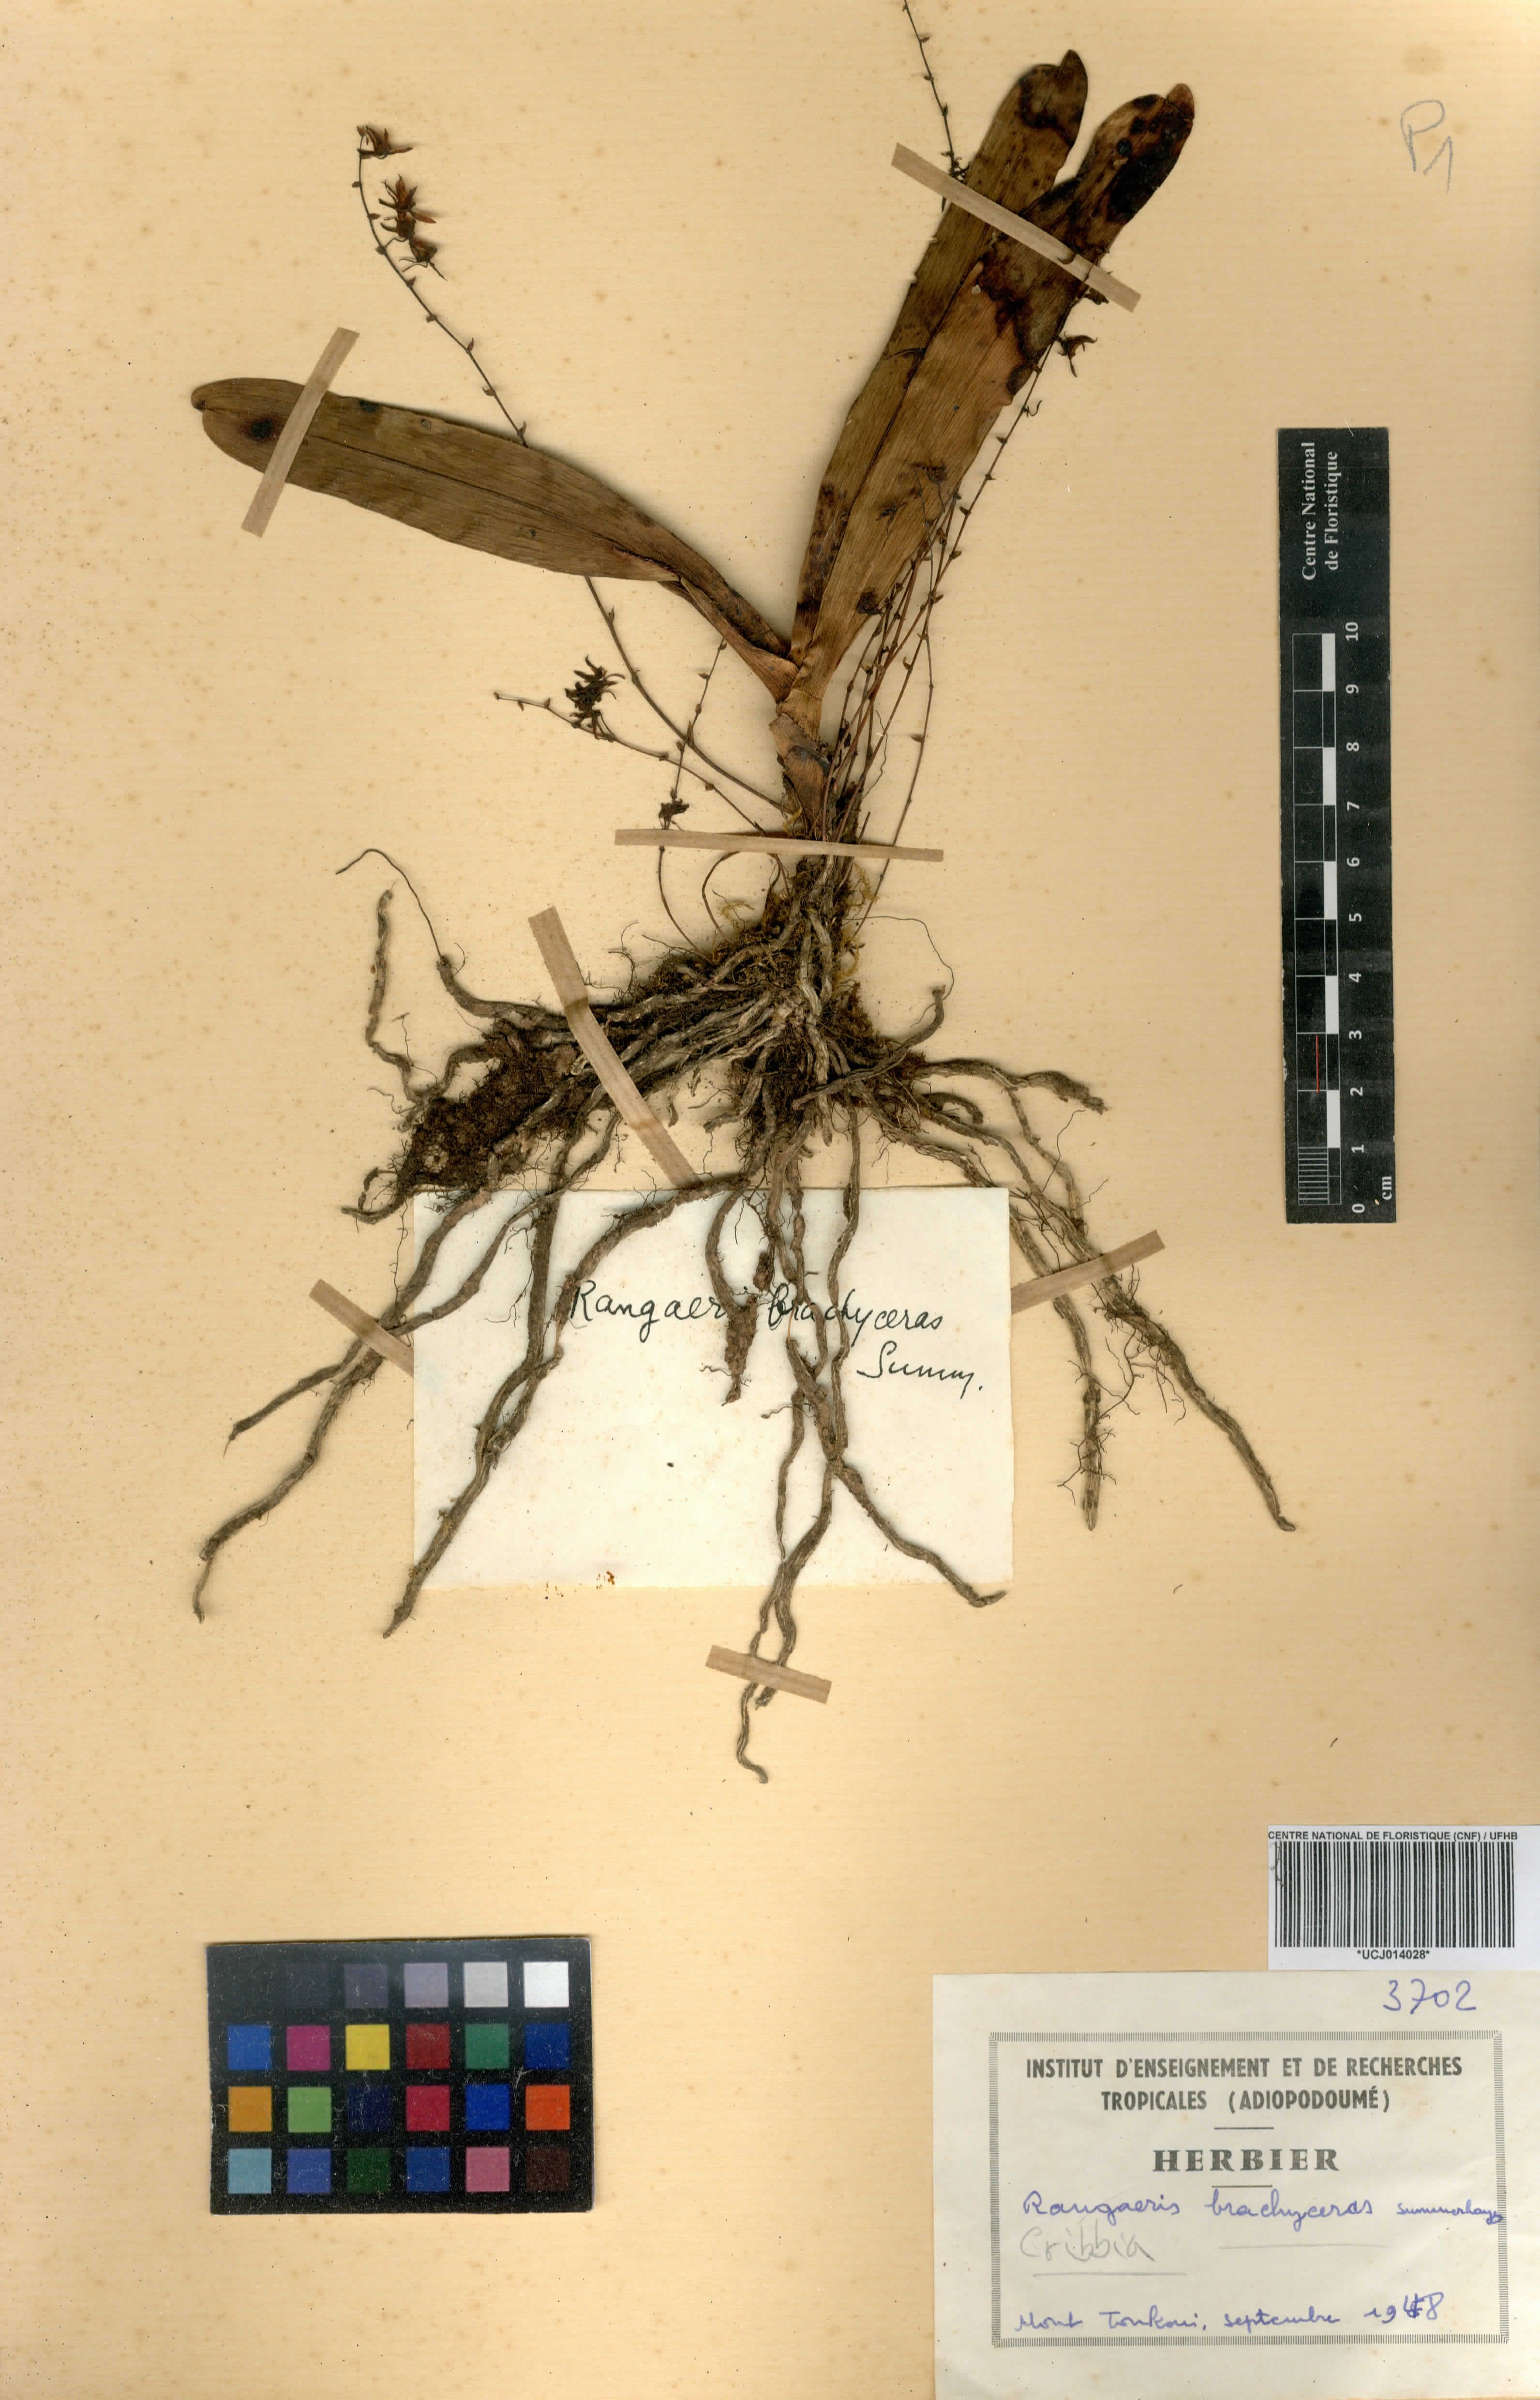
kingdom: Plantae
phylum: Tracheophyta
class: Liliopsida
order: Asparagales
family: Orchidaceae
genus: Rhipidoglossum
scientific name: Rhipidoglossum brachyceras
